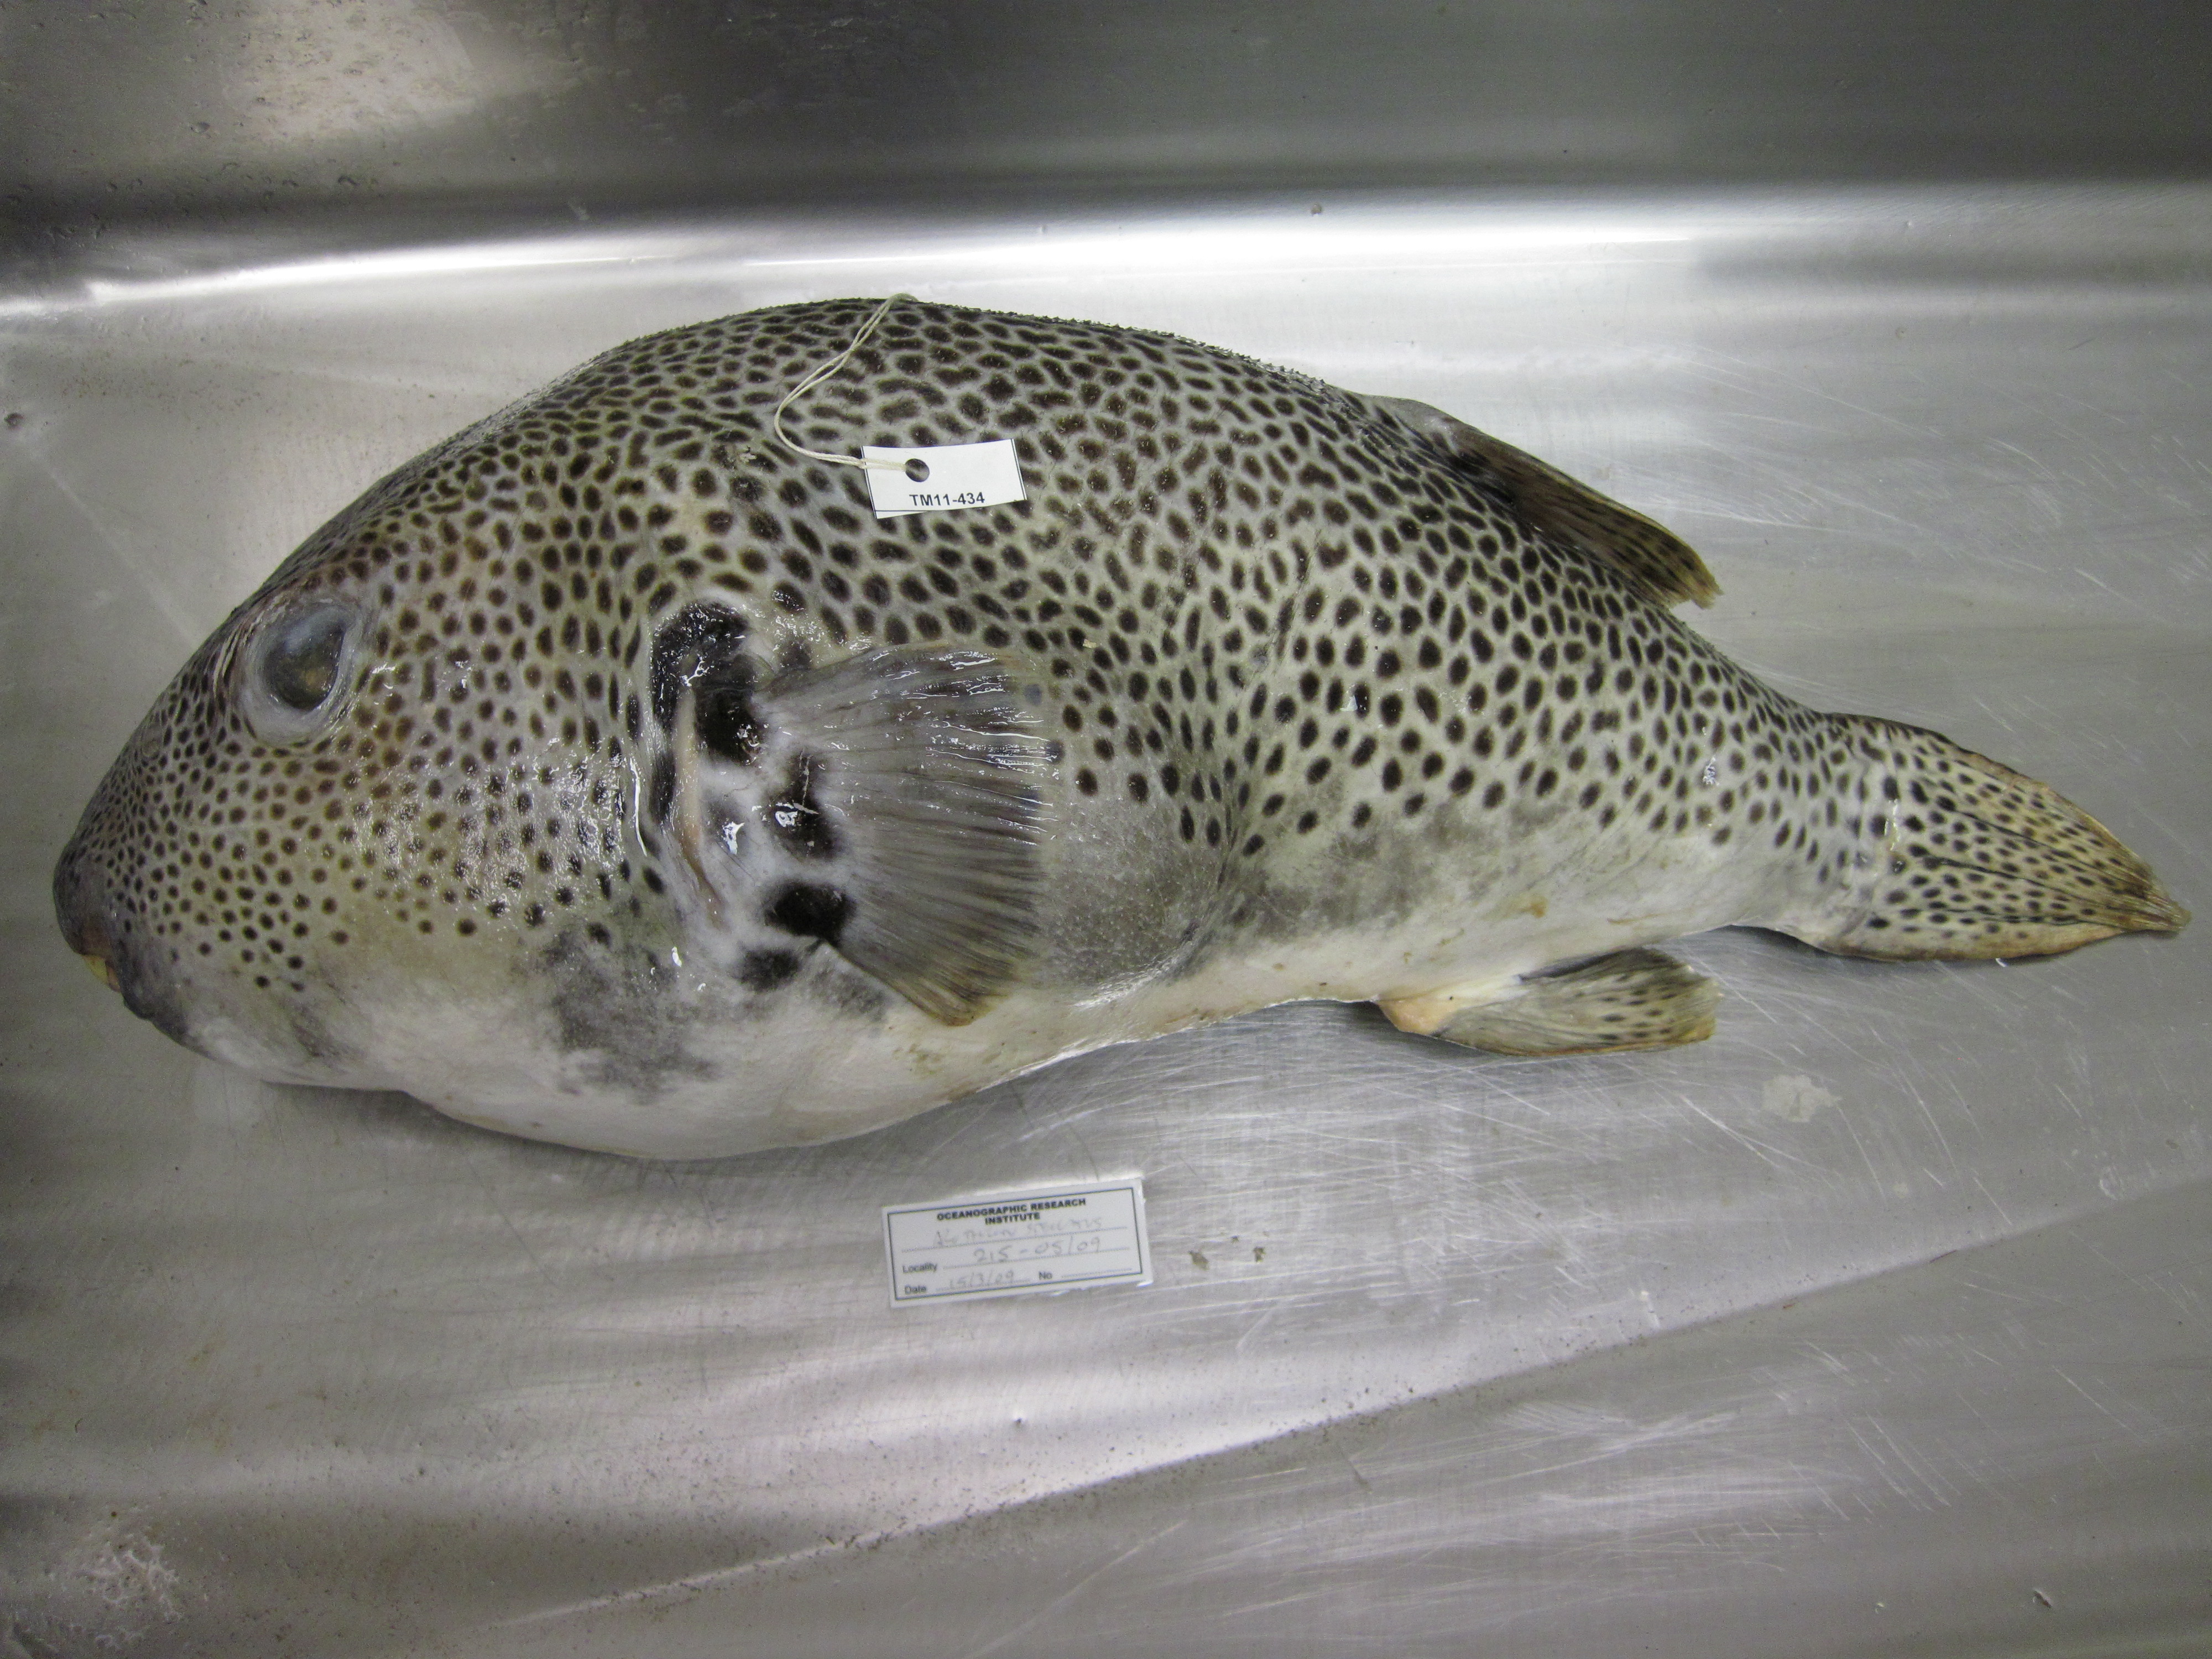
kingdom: Animalia
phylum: Chordata
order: Tetraodontiformes
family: Tetraodontidae
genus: Arothron
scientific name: Arothron stellatus
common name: Star blaasop
